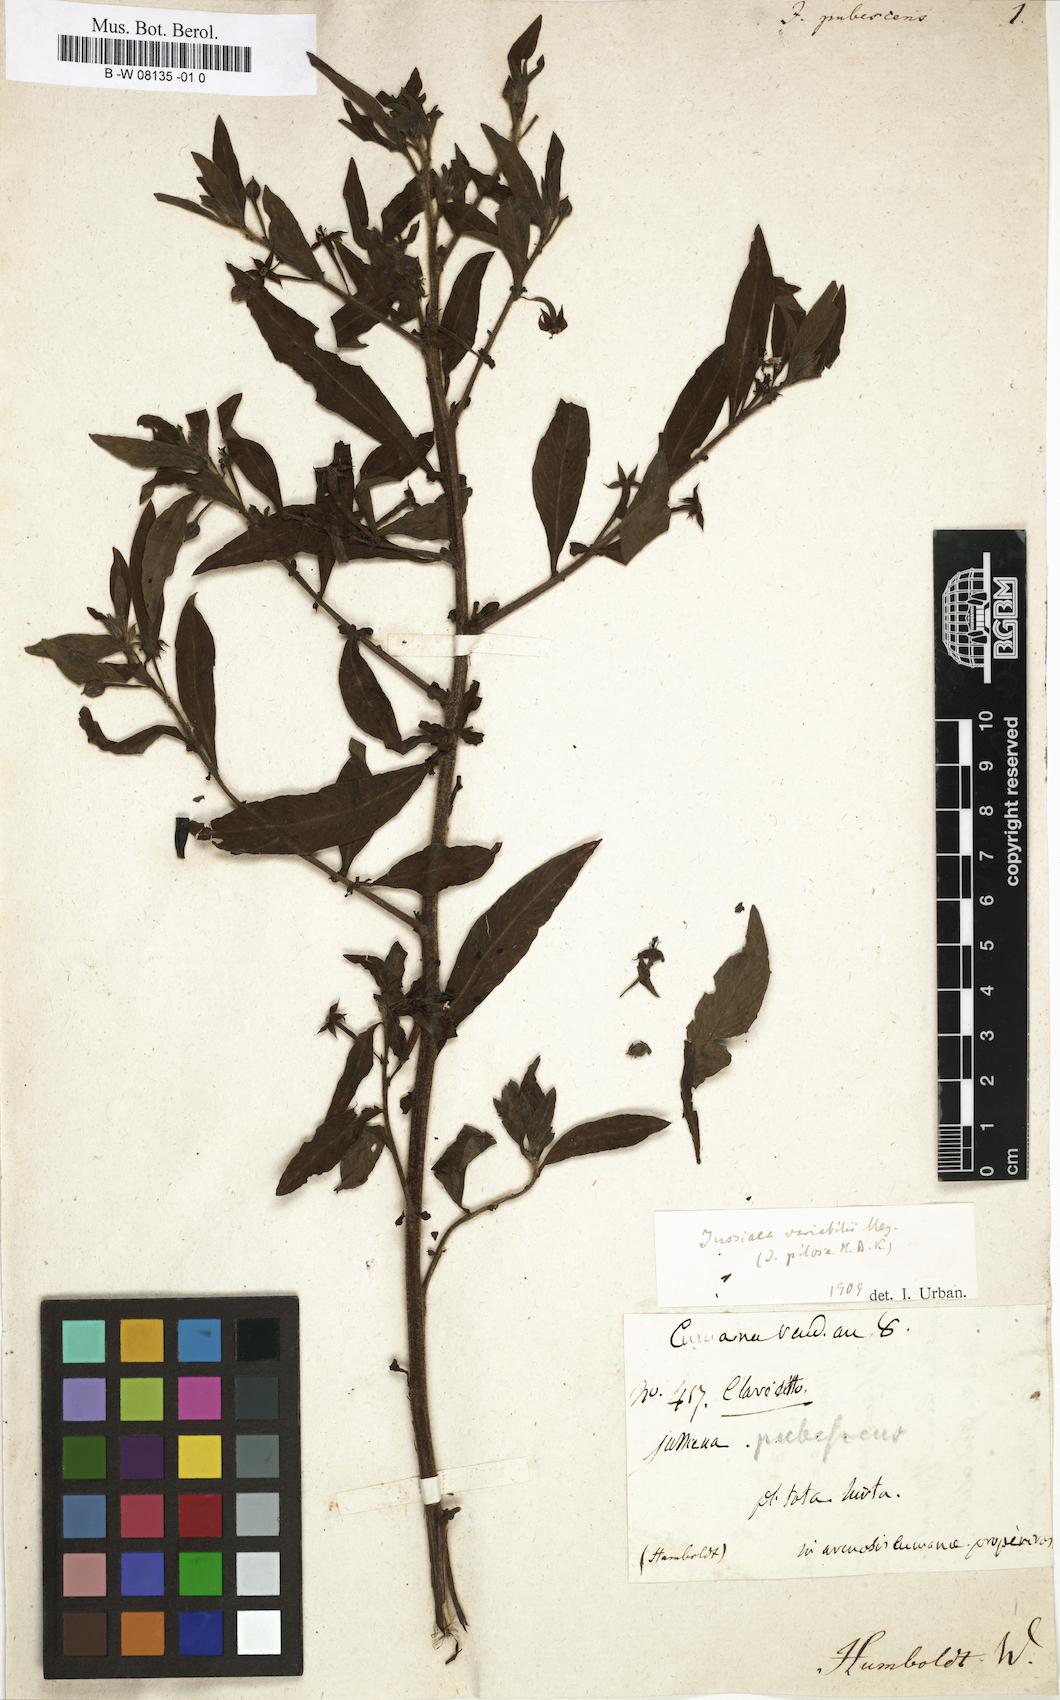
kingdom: Plantae
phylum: Tracheophyta
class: Magnoliopsida
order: Myrtales
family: Onagraceae
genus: Ludwigia
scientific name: Ludwigia octovalvis
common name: Water-primrose
